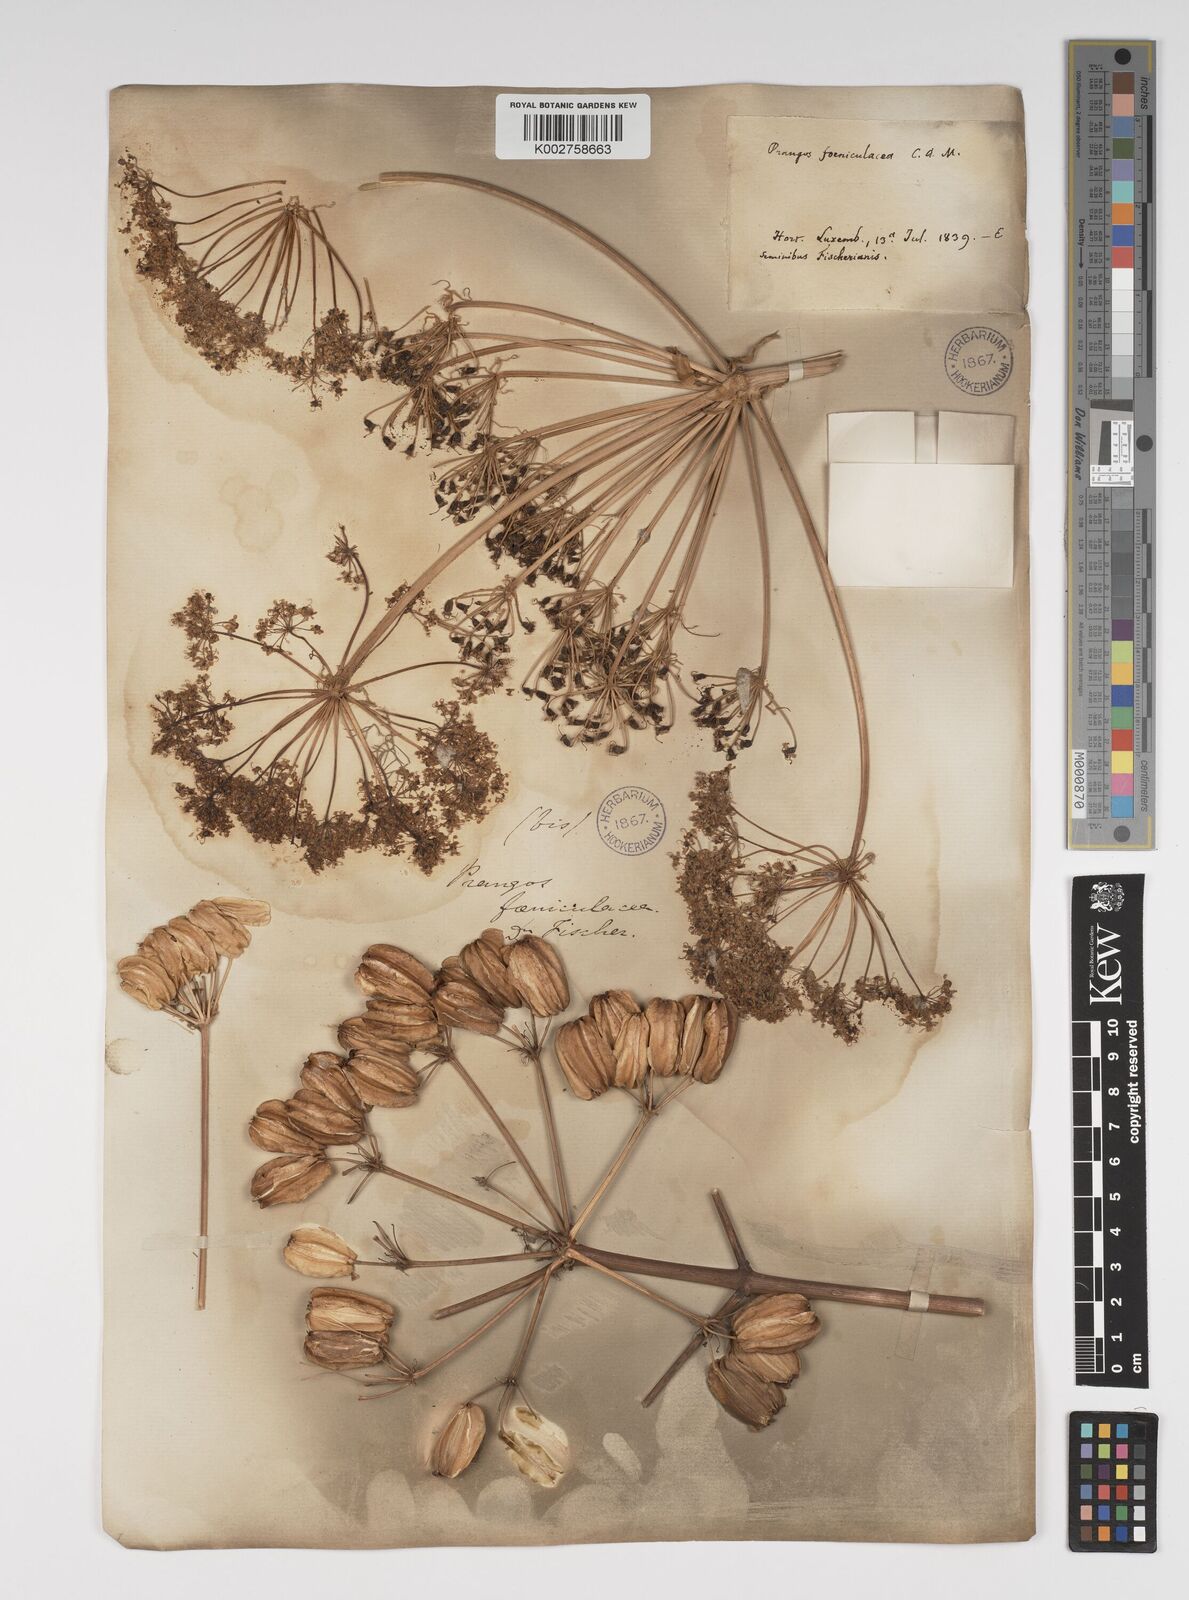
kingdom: Plantae
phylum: Tracheophyta
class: Magnoliopsida
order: Apiales
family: Apiaceae
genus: Prangos
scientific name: Prangos ferulacea
